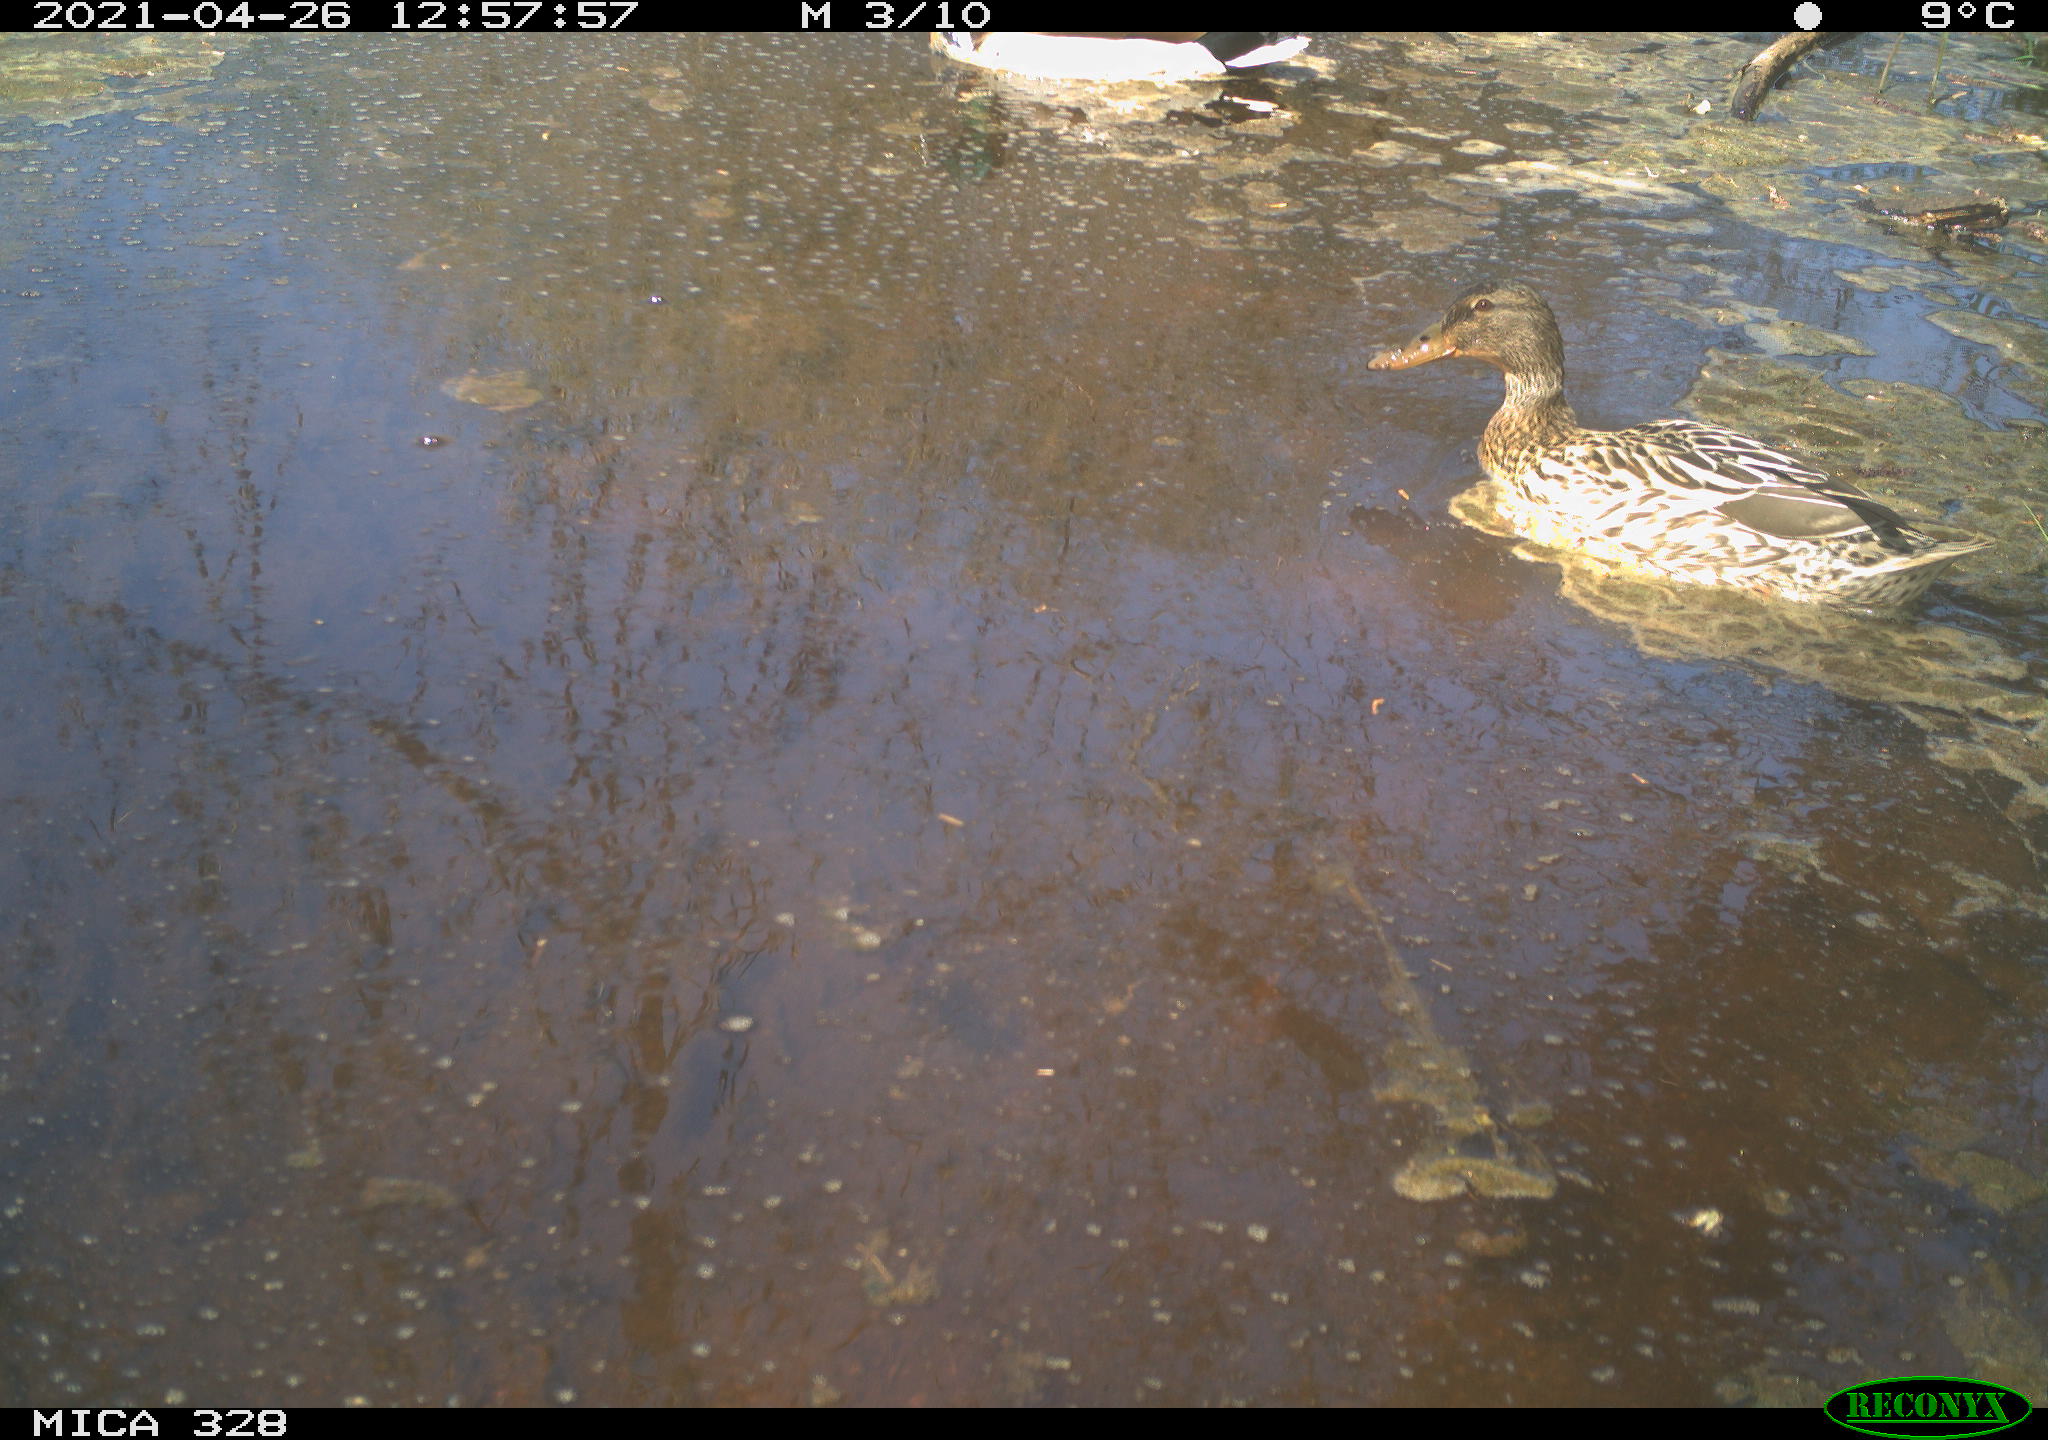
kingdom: Animalia
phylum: Chordata
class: Aves
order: Anseriformes
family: Anatidae
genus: Anas
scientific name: Anas platyrhynchos
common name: Mallard
